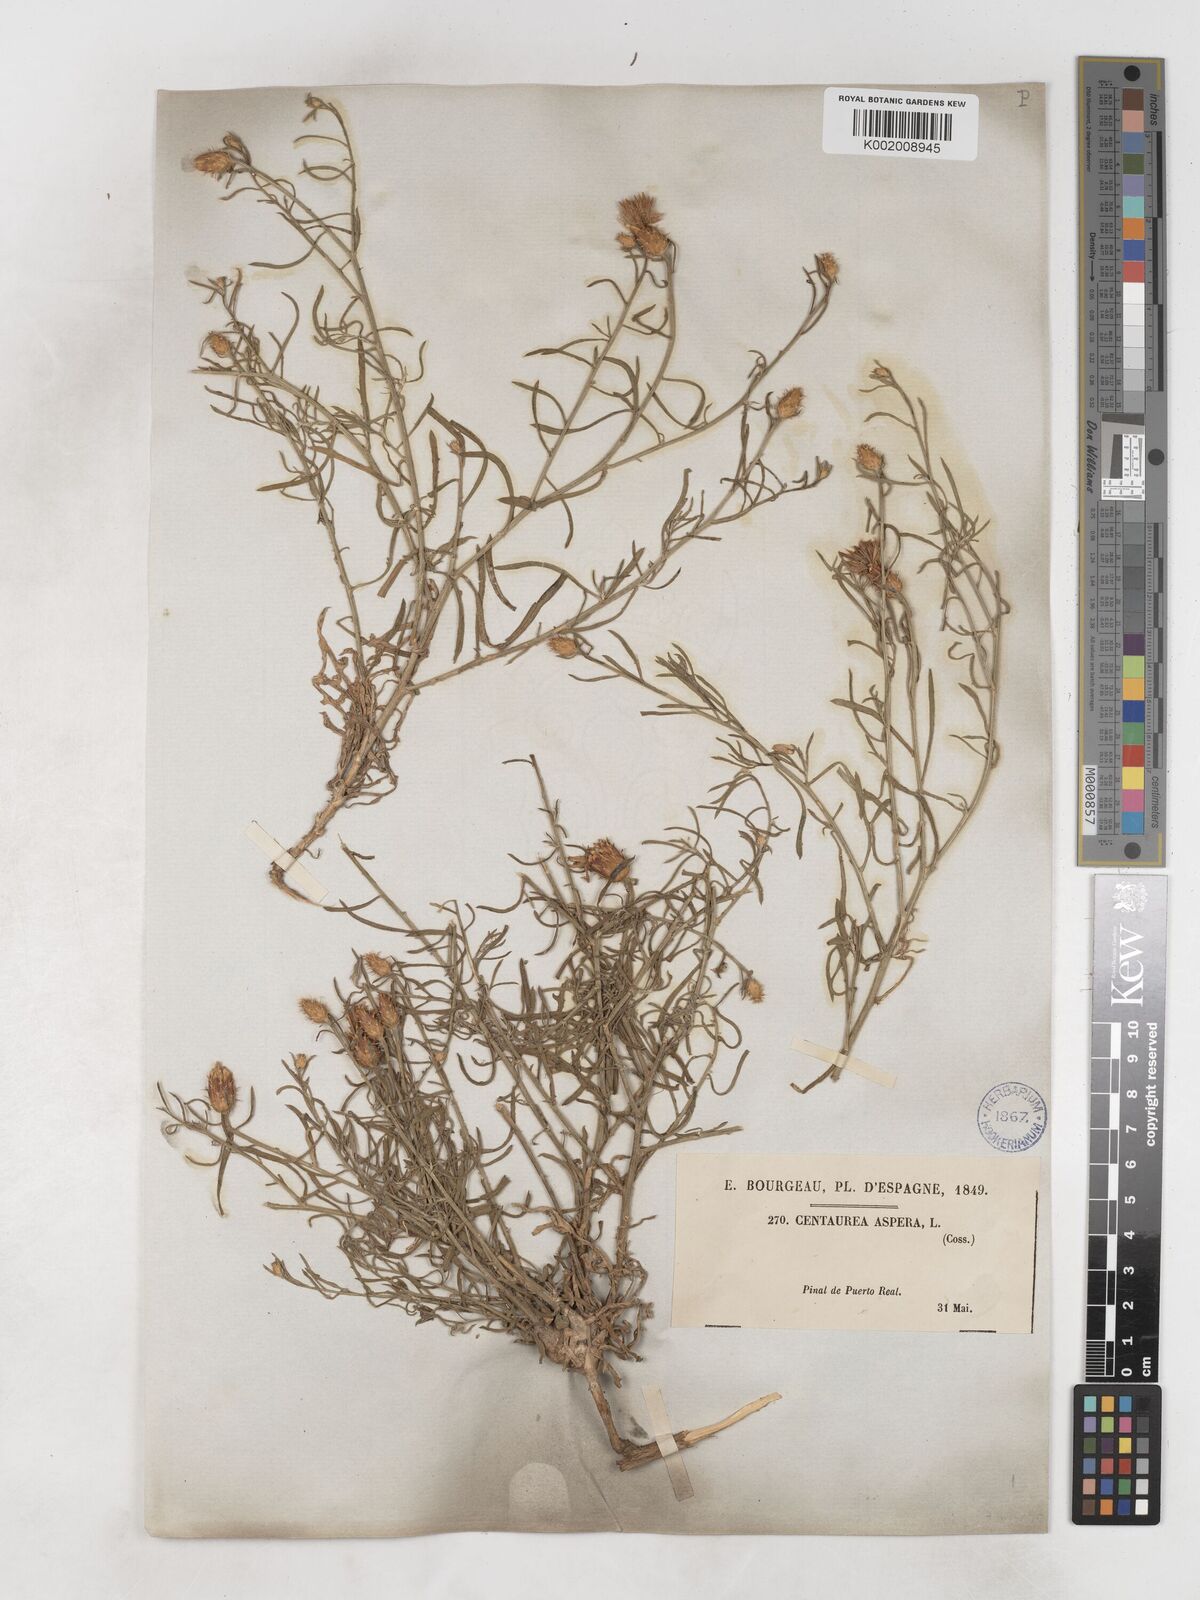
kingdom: Plantae
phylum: Tracheophyta
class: Magnoliopsida
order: Asterales
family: Asteraceae
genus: Centaurea
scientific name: Centaurea aspera
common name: Rough star-thistle
